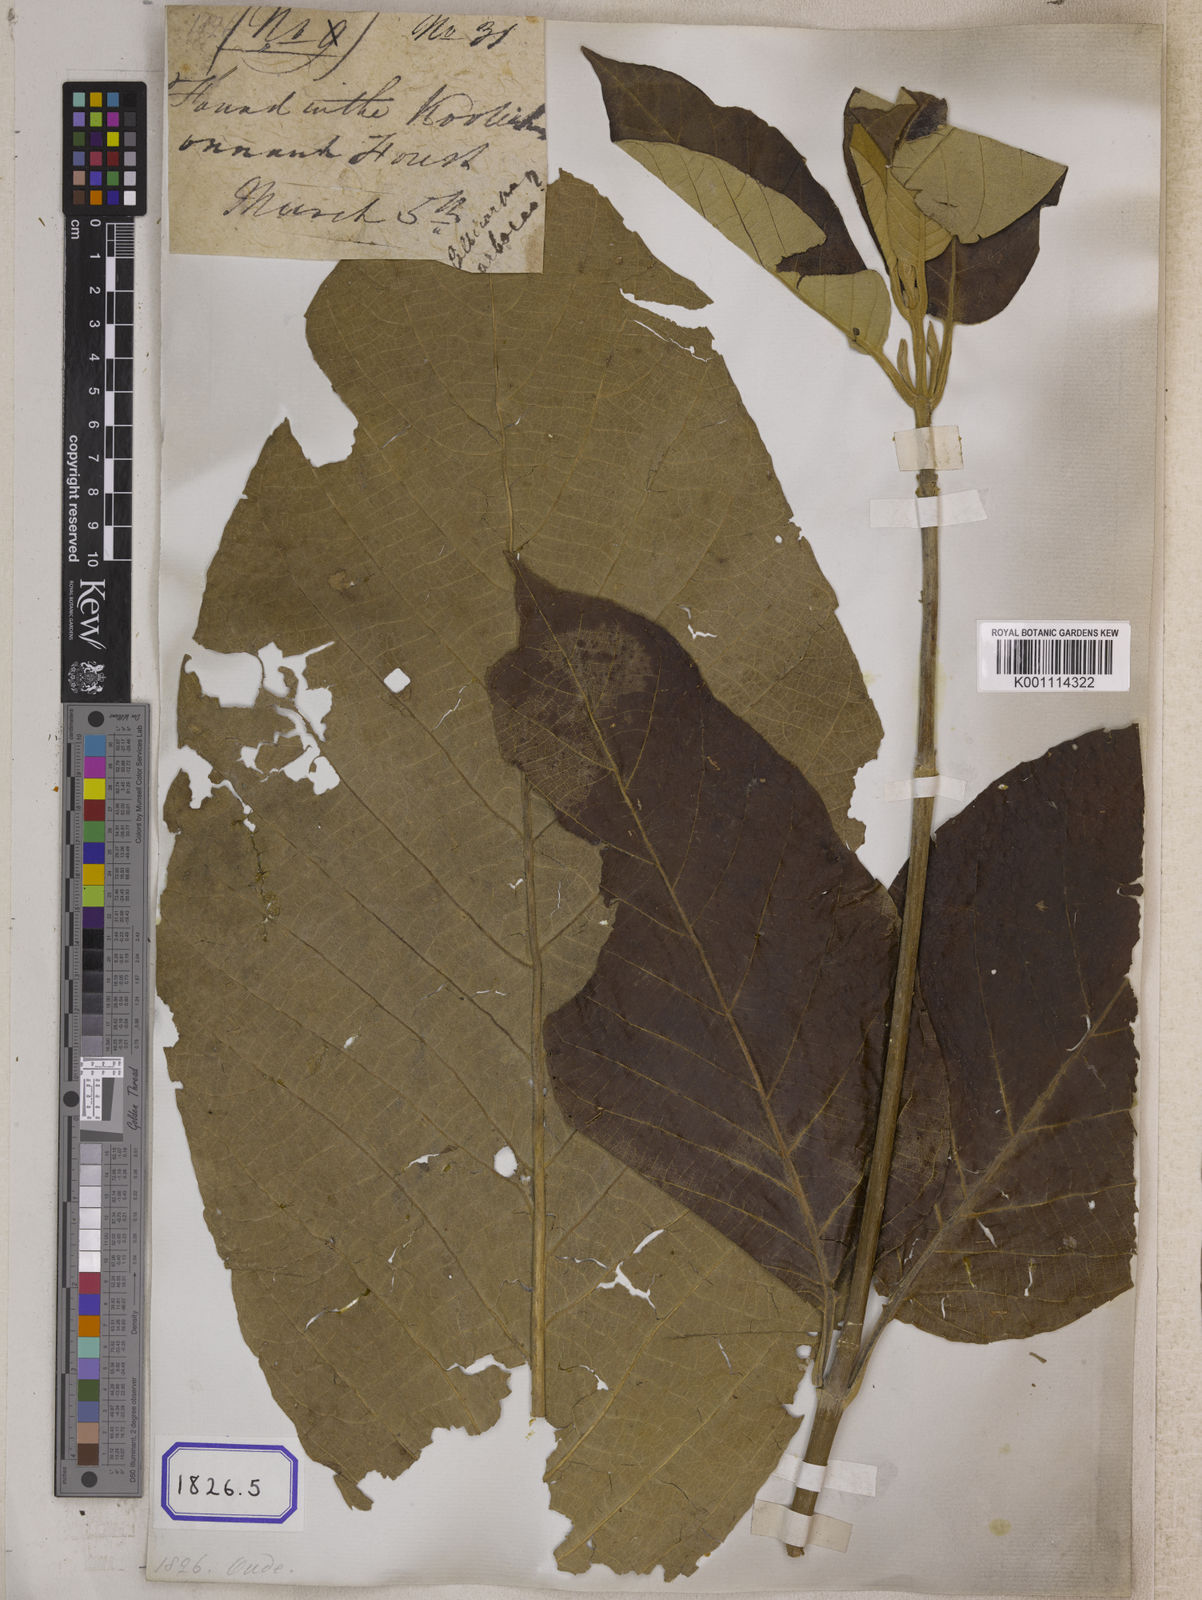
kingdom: Plantae
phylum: Tracheophyta
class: Magnoliopsida
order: Lamiales
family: Lamiaceae
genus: Callicarpa
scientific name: Callicarpa arborea
